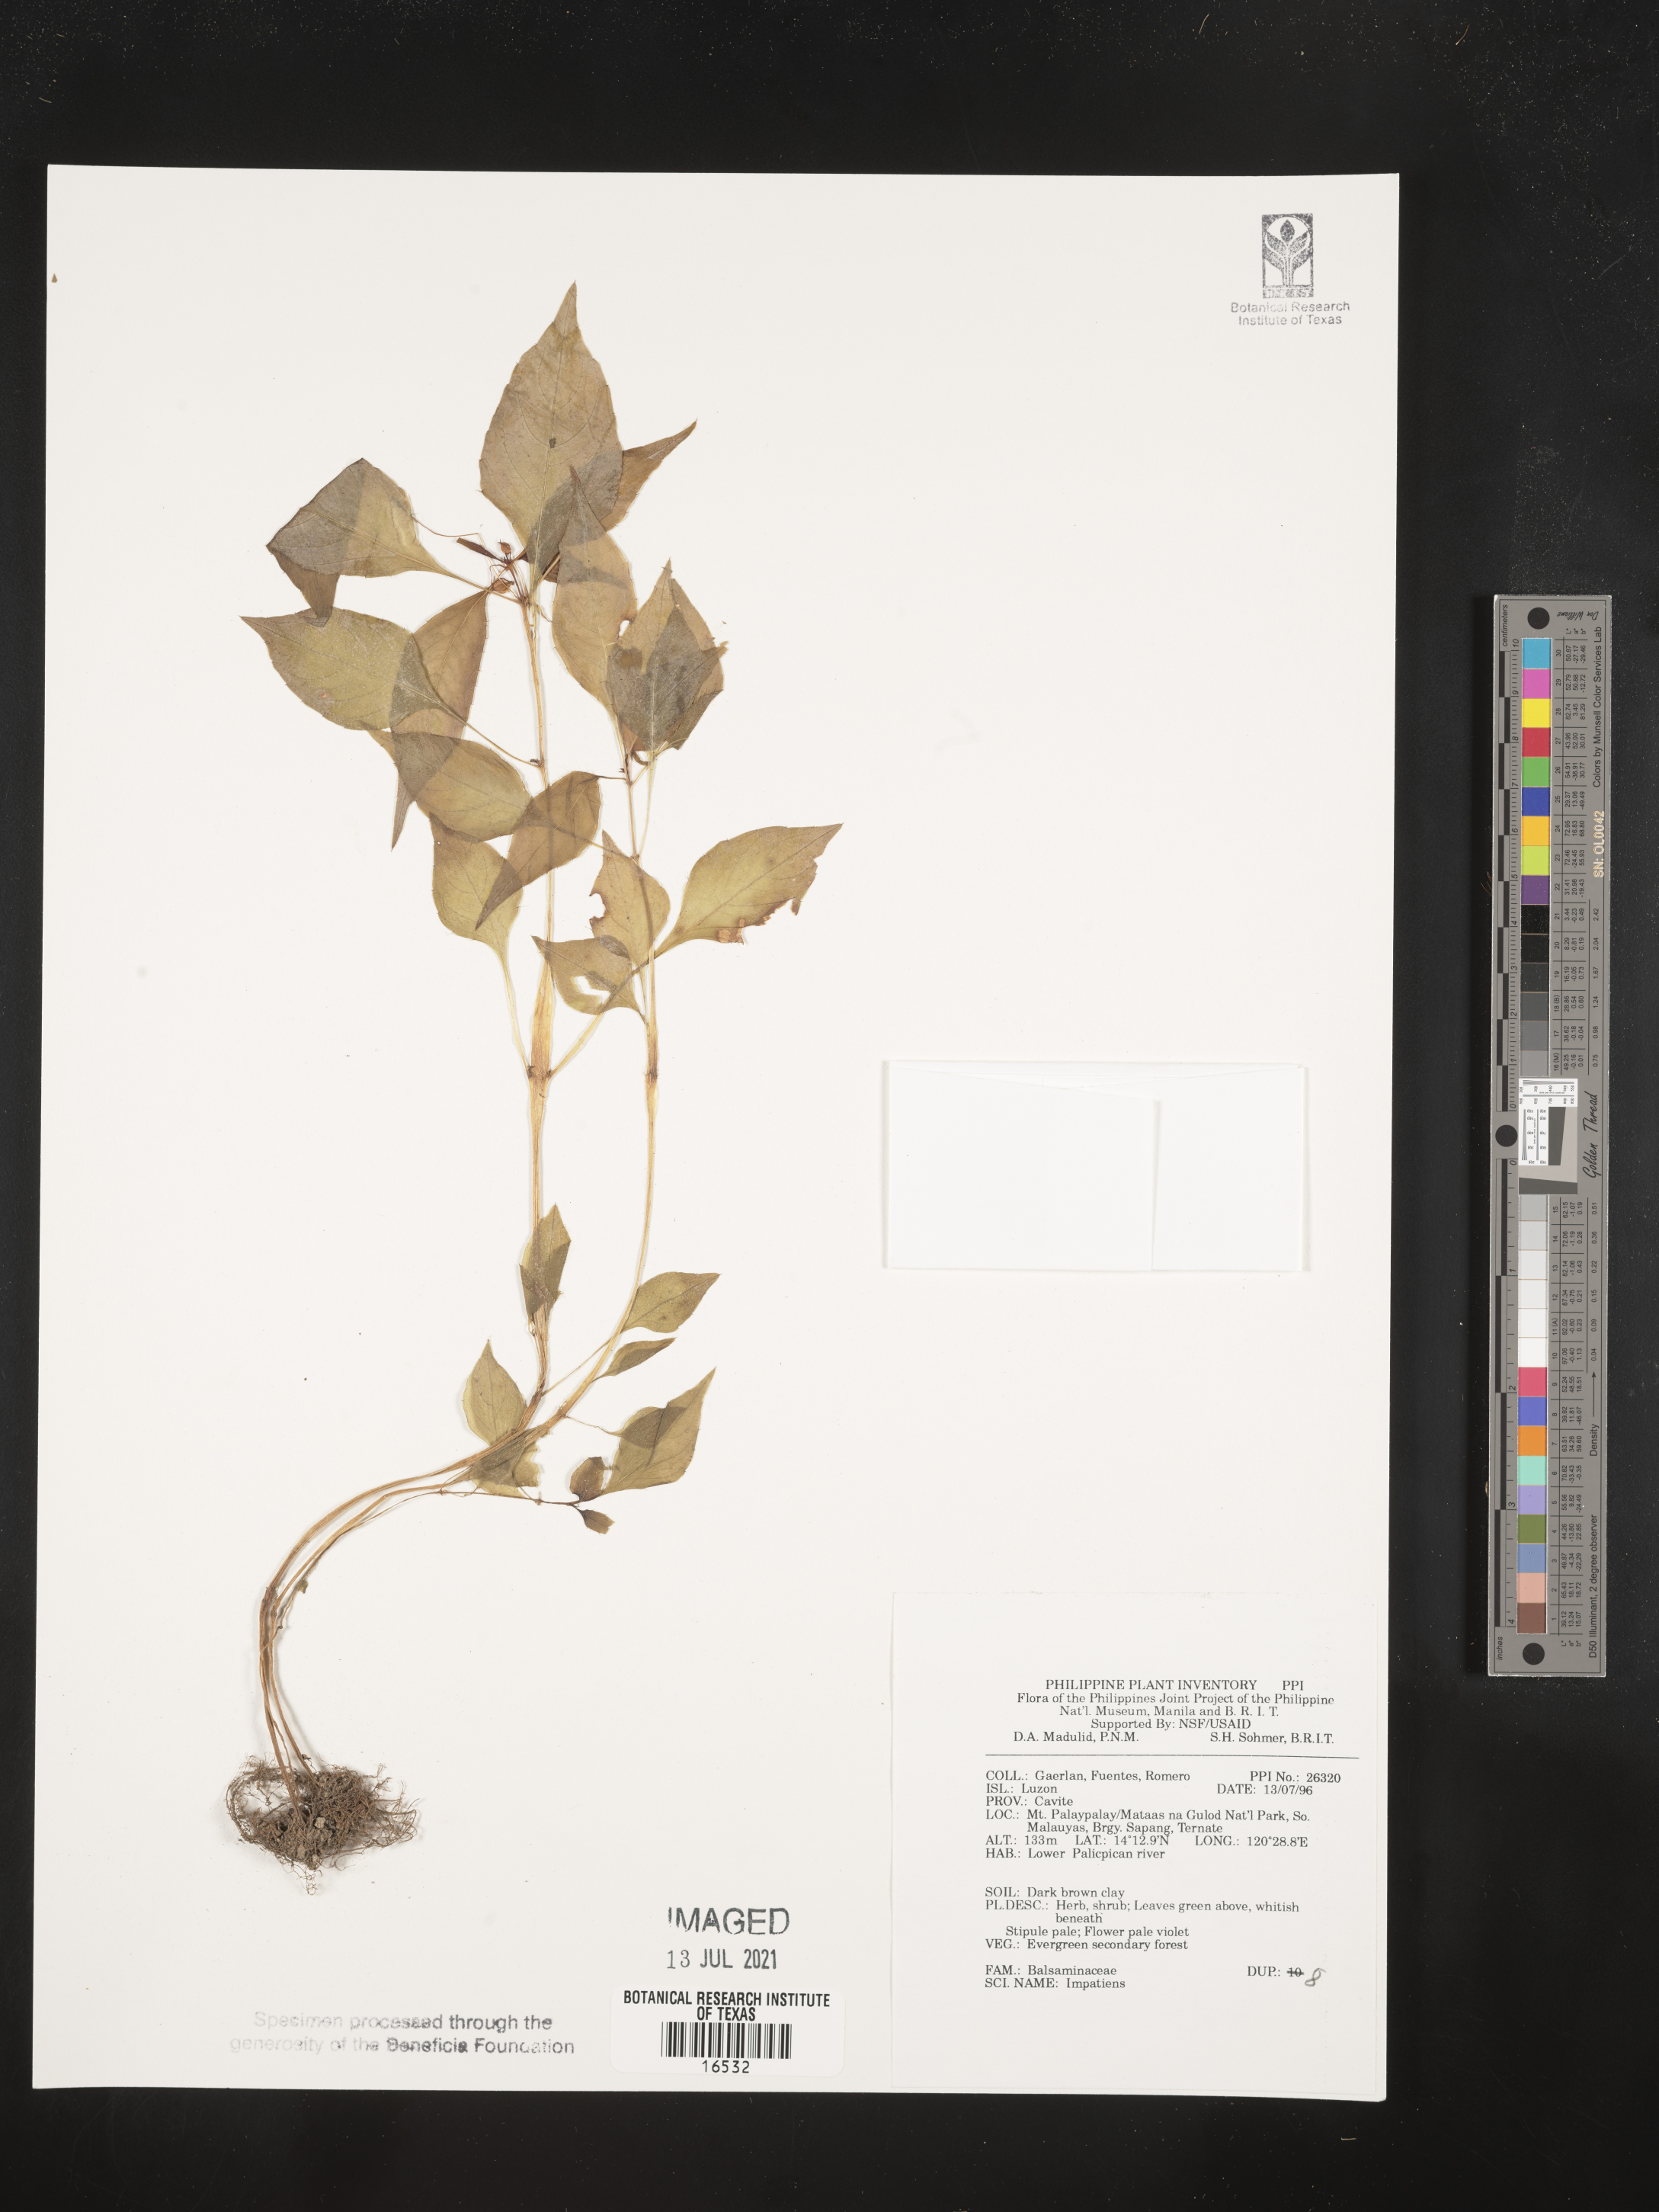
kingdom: Plantae
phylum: Tracheophyta
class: Magnoliopsida
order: Ericales
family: Balsaminaceae
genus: Impatiens
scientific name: Impatiens
